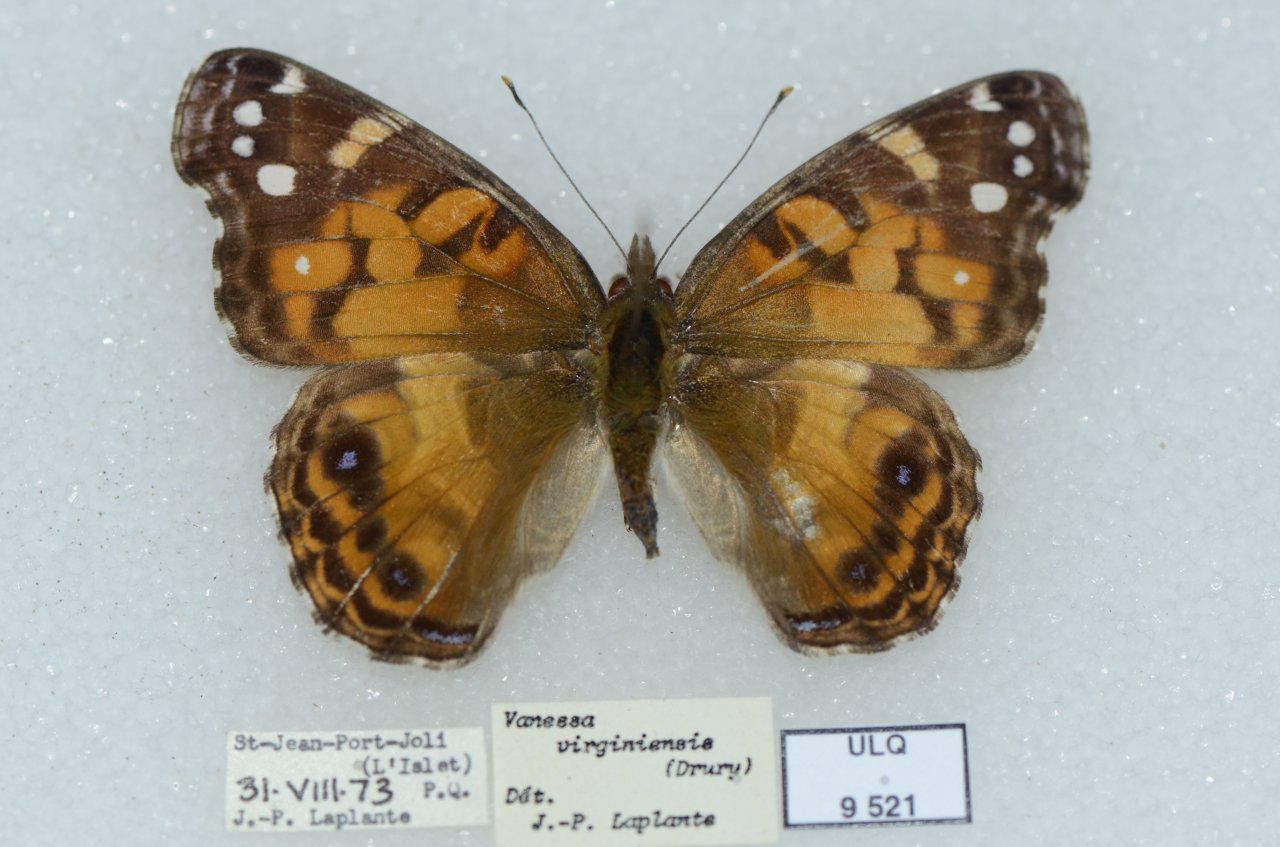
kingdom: Animalia
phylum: Arthropoda
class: Insecta
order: Lepidoptera
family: Nymphalidae
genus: Vanessa
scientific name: Vanessa virginiensis
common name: American Lady
